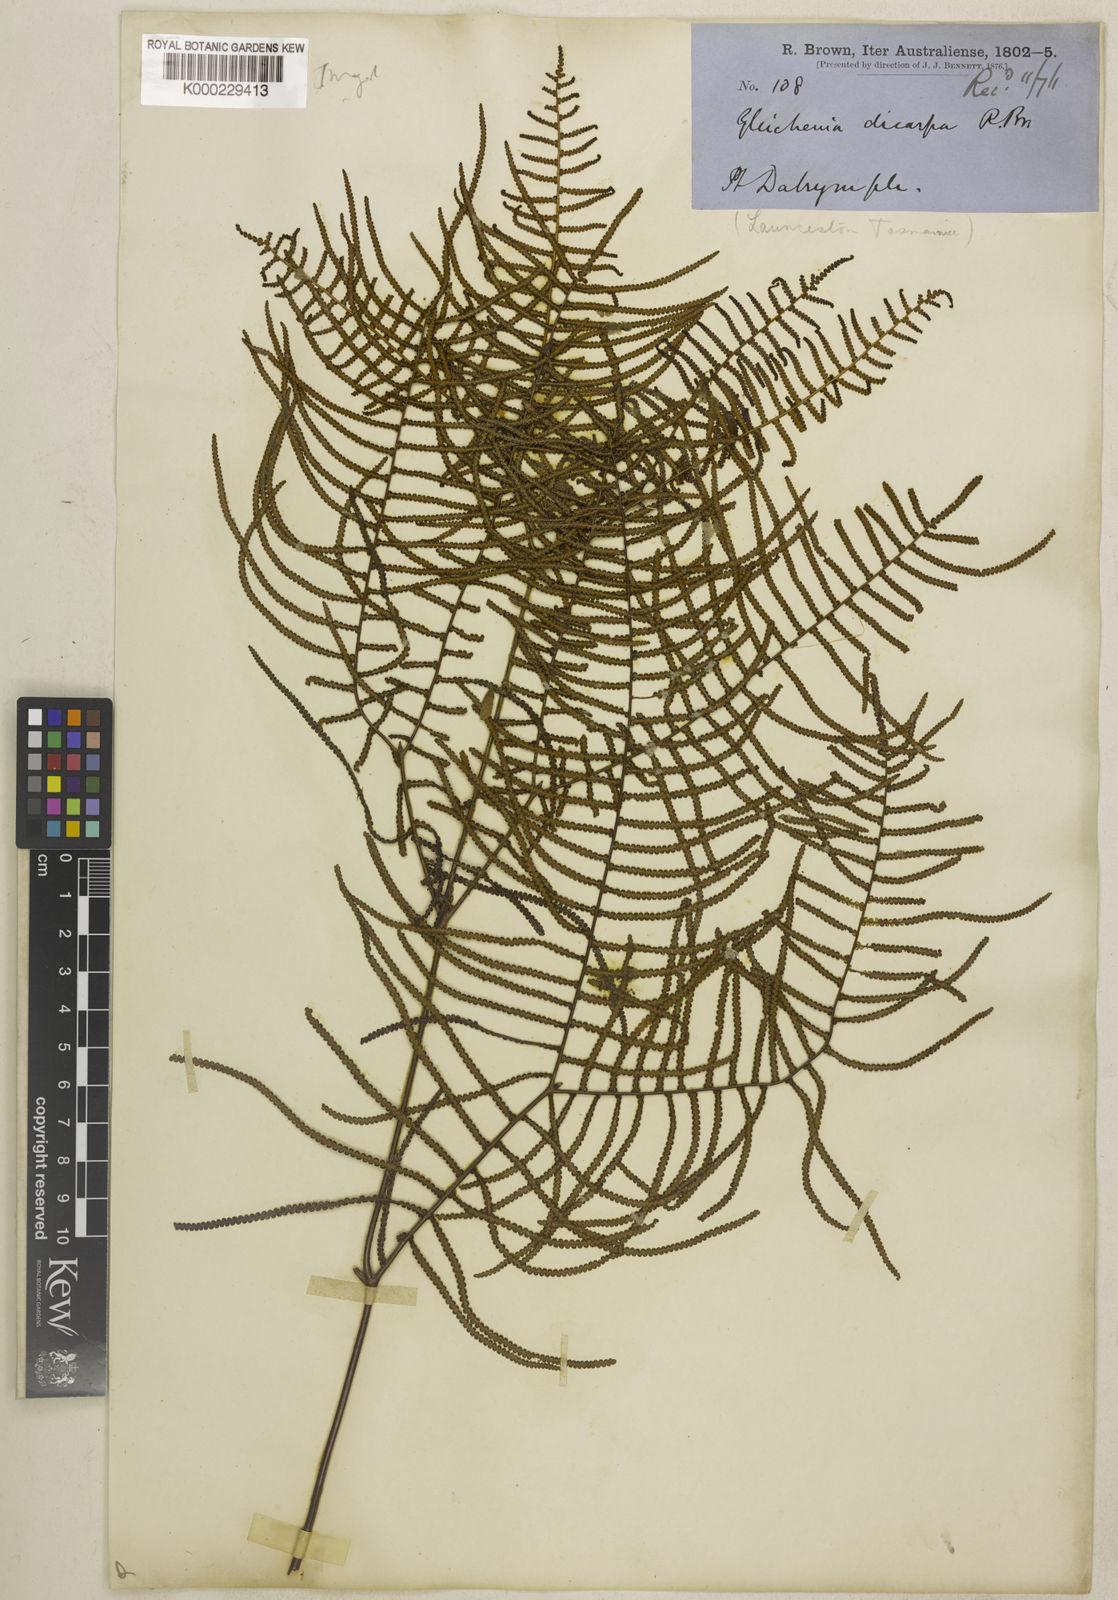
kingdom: Plantae
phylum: Tracheophyta
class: Polypodiopsida
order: Gleicheniales
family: Gleicheniaceae
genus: Gleichenia
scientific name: Gleichenia dicarpa
